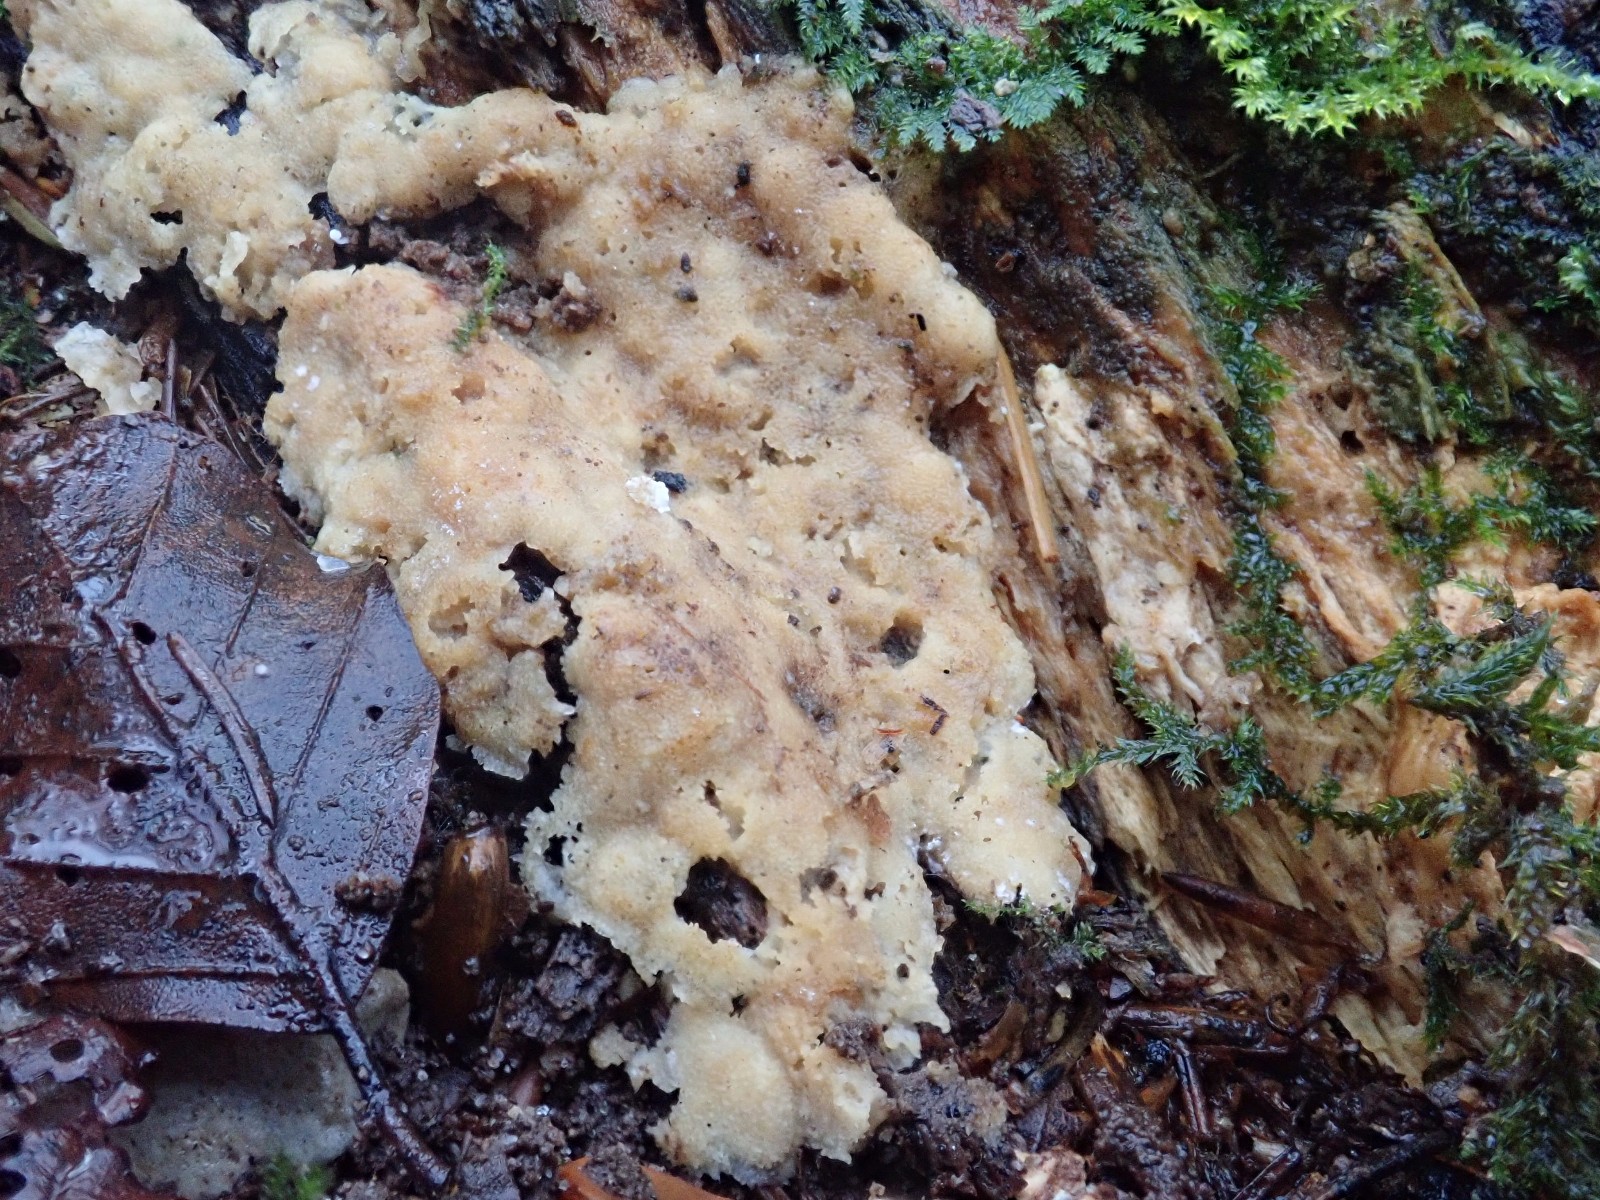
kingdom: Fungi
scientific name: Fungi
